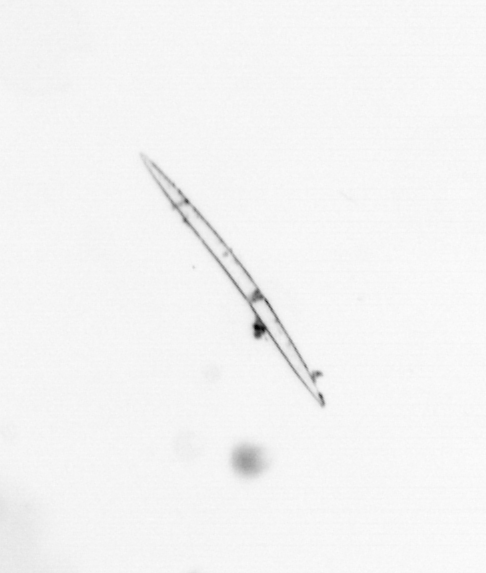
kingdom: Chromista
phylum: Ochrophyta
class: Bacillariophyceae
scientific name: Bacillariophyceae
